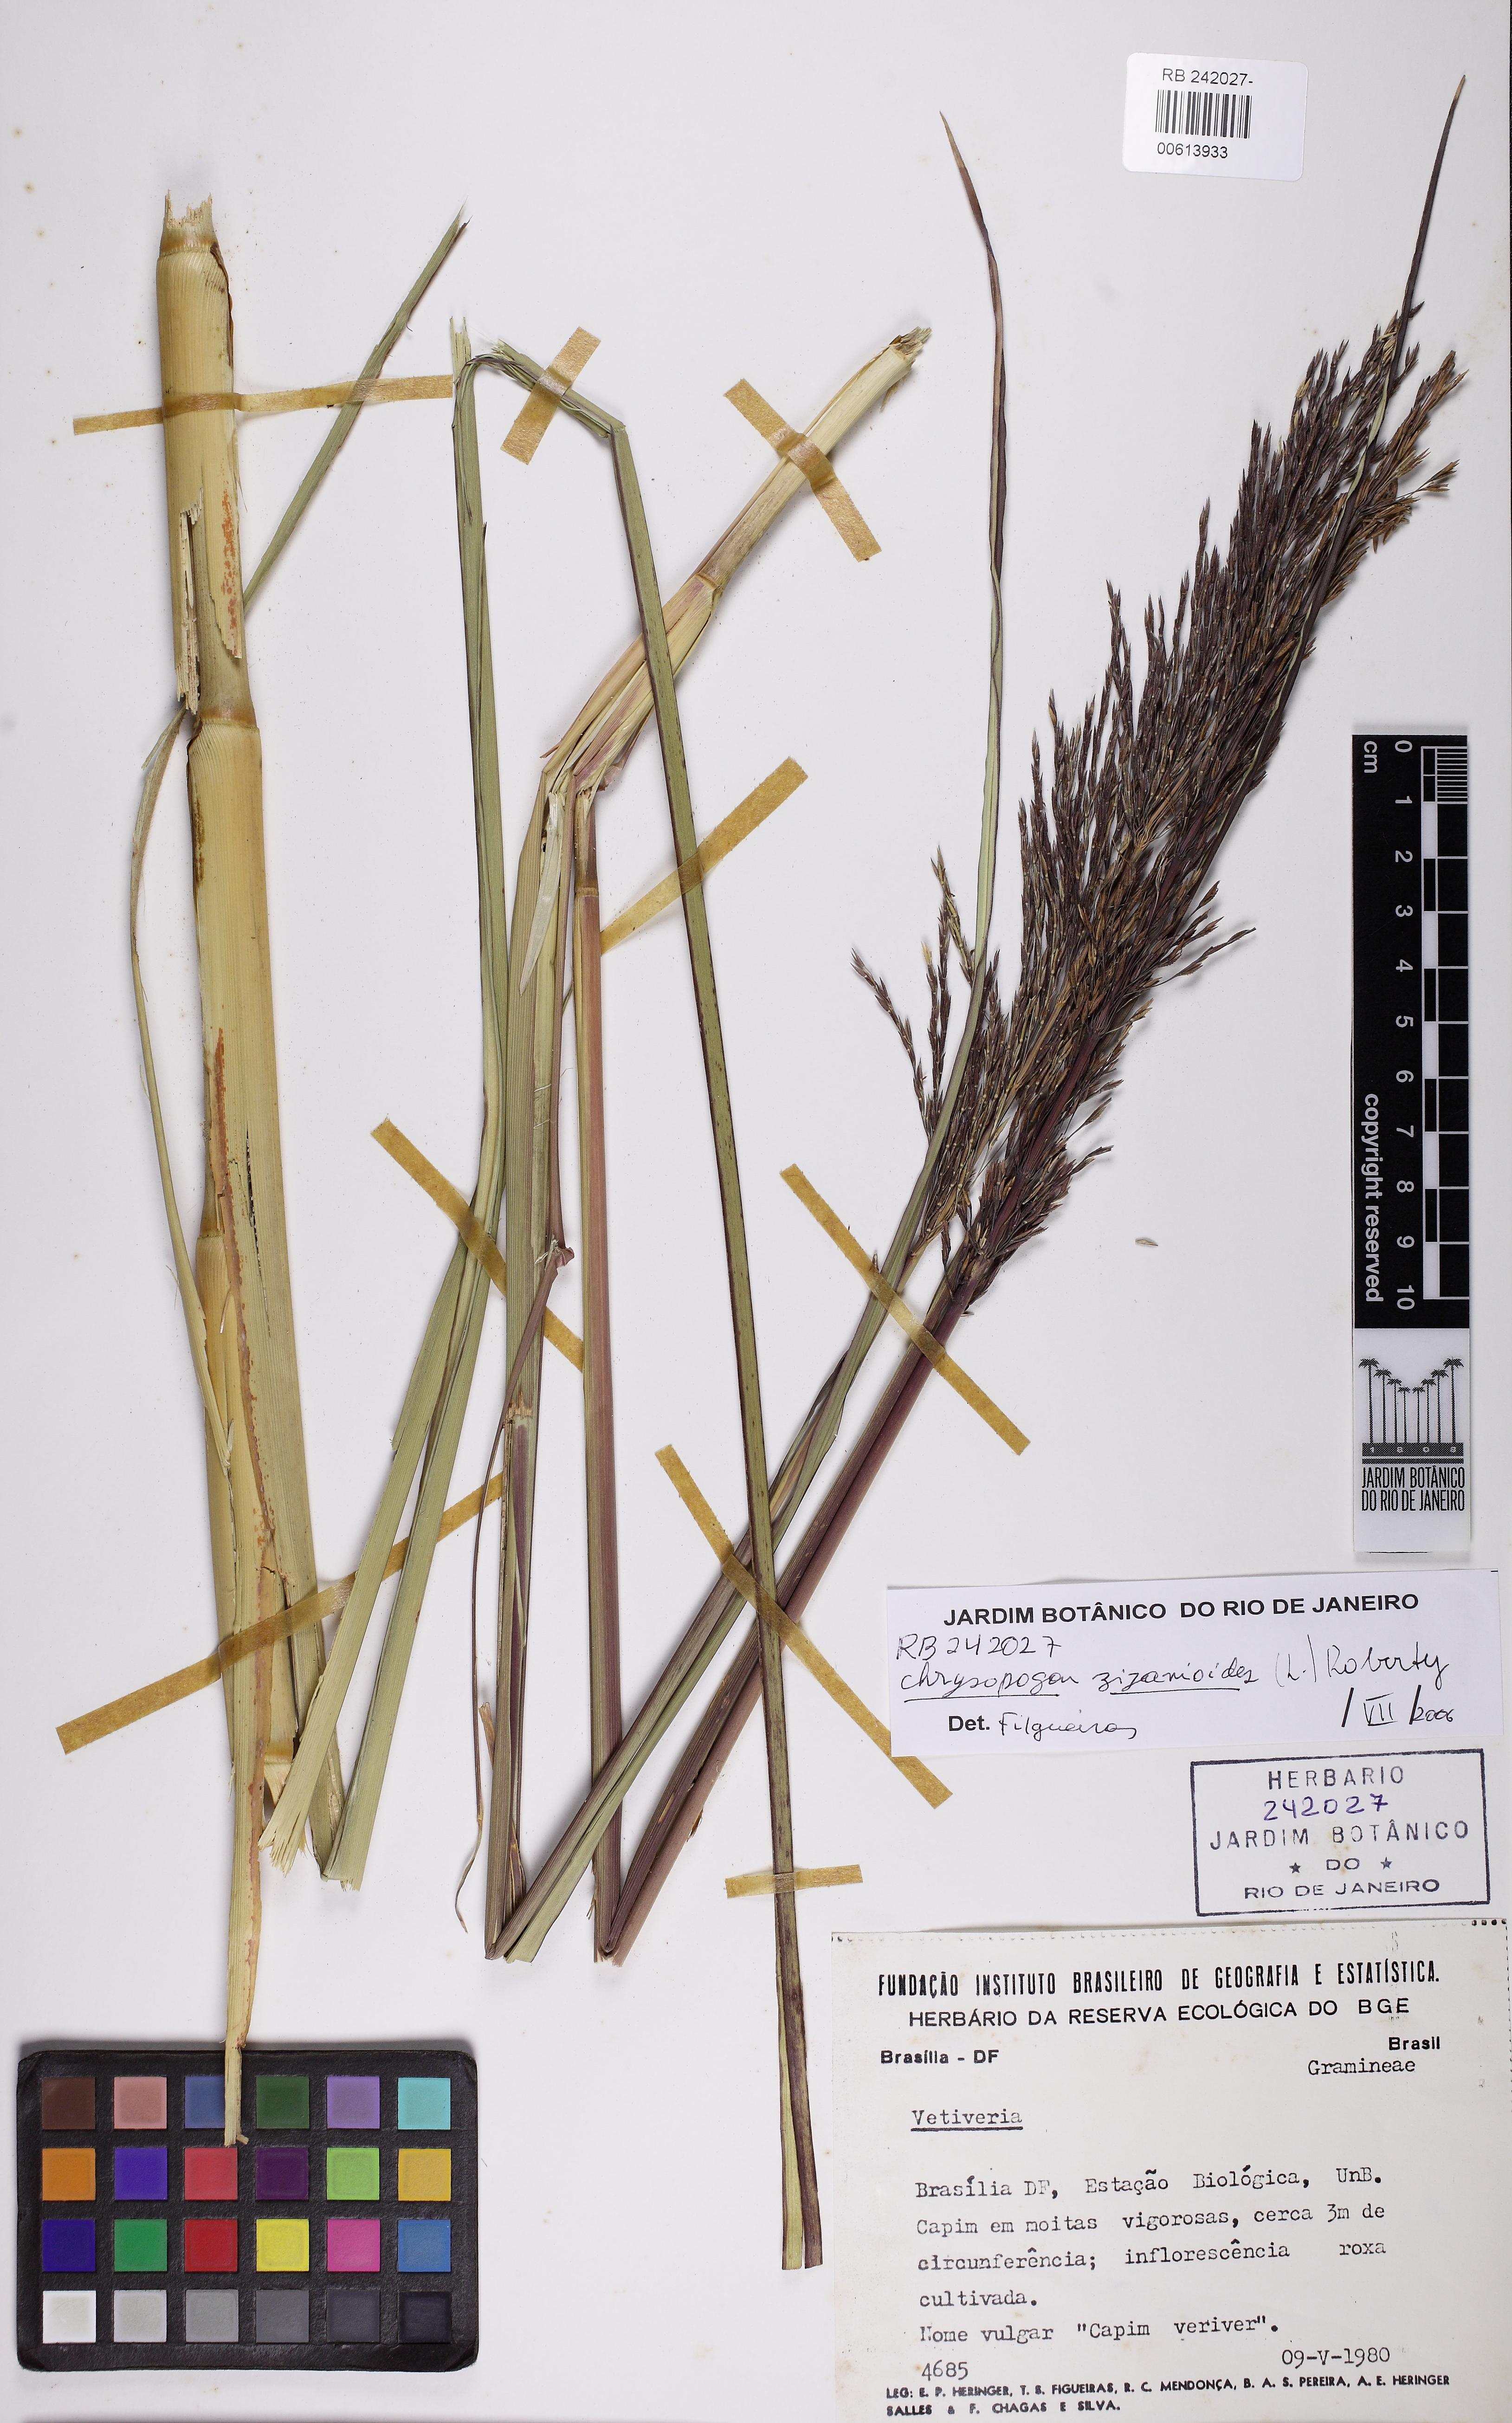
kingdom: Plantae
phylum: Tracheophyta
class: Liliopsida
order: Poales
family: Poaceae
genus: Chrysopogon
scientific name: Chrysopogon zizanioides
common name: False beardgrass
